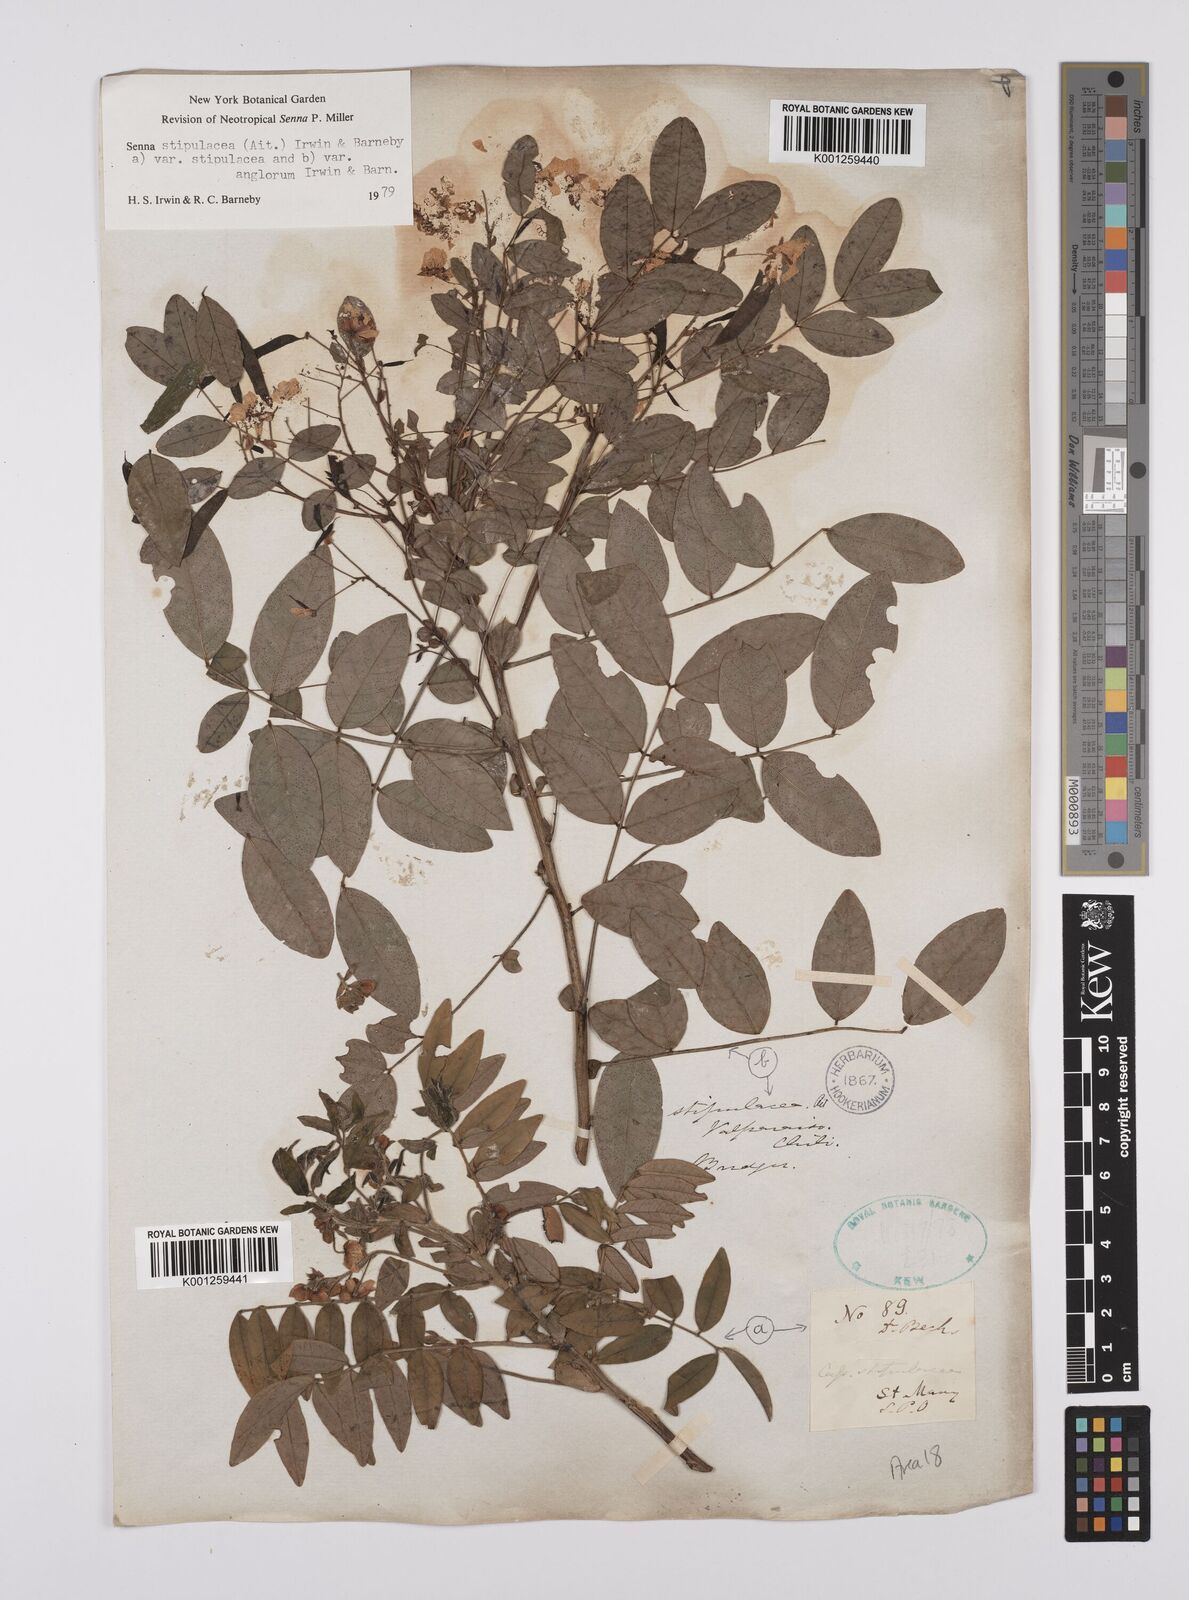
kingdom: Plantae
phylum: Tracheophyta
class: Magnoliopsida
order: Fabales
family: Fabaceae
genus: Senna
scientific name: Senna stipulacea
